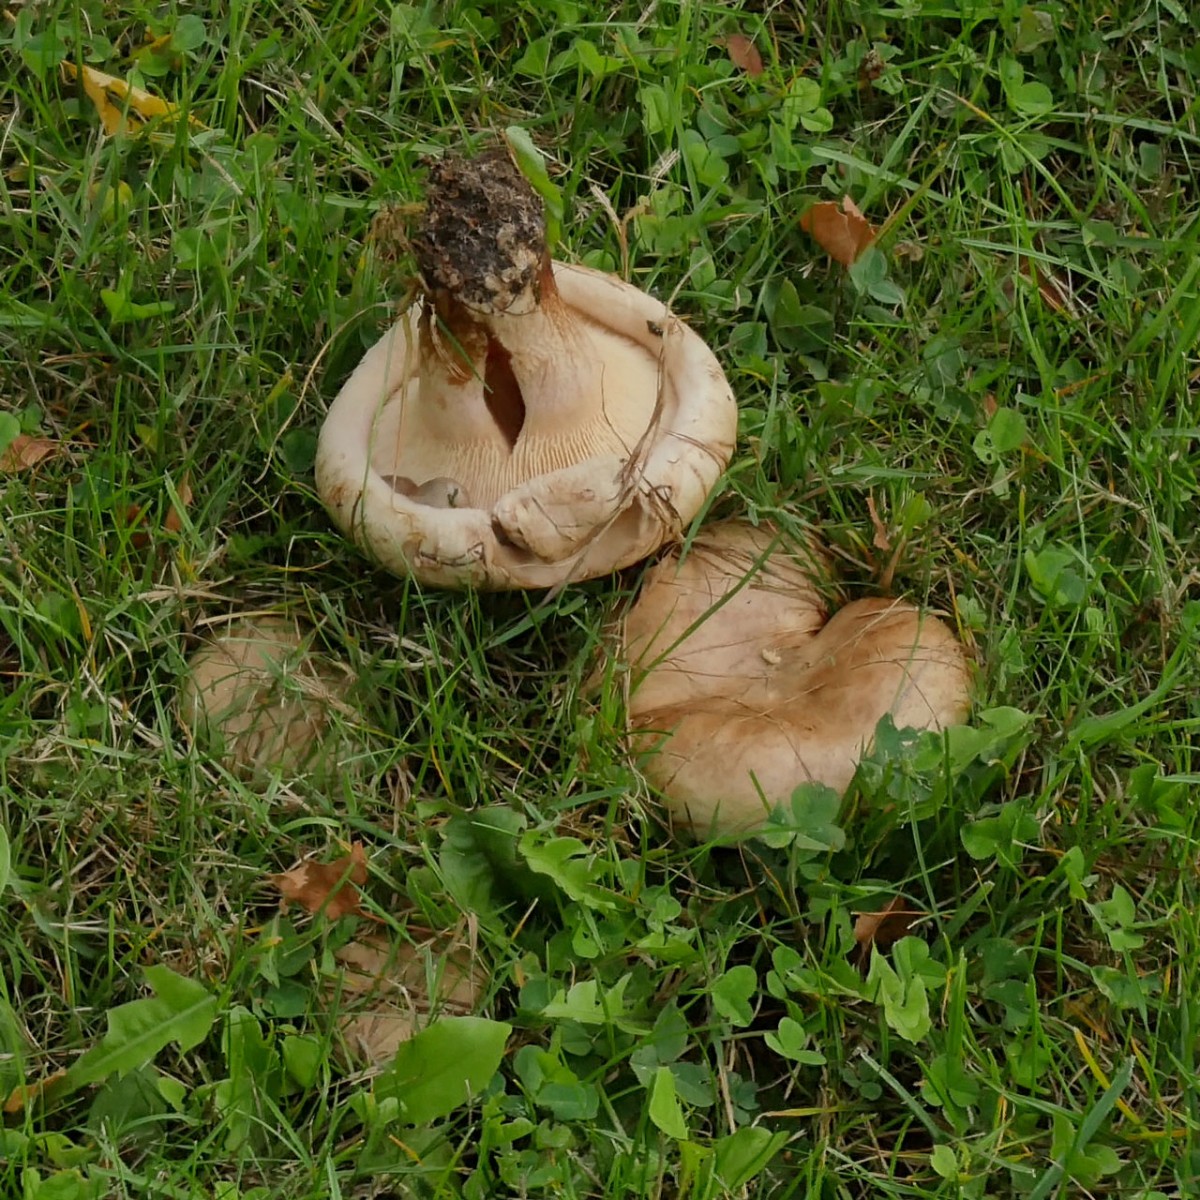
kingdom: Fungi
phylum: Basidiomycota
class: Agaricomycetes
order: Boletales
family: Paxillaceae
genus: Paxillus
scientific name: Paxillus
